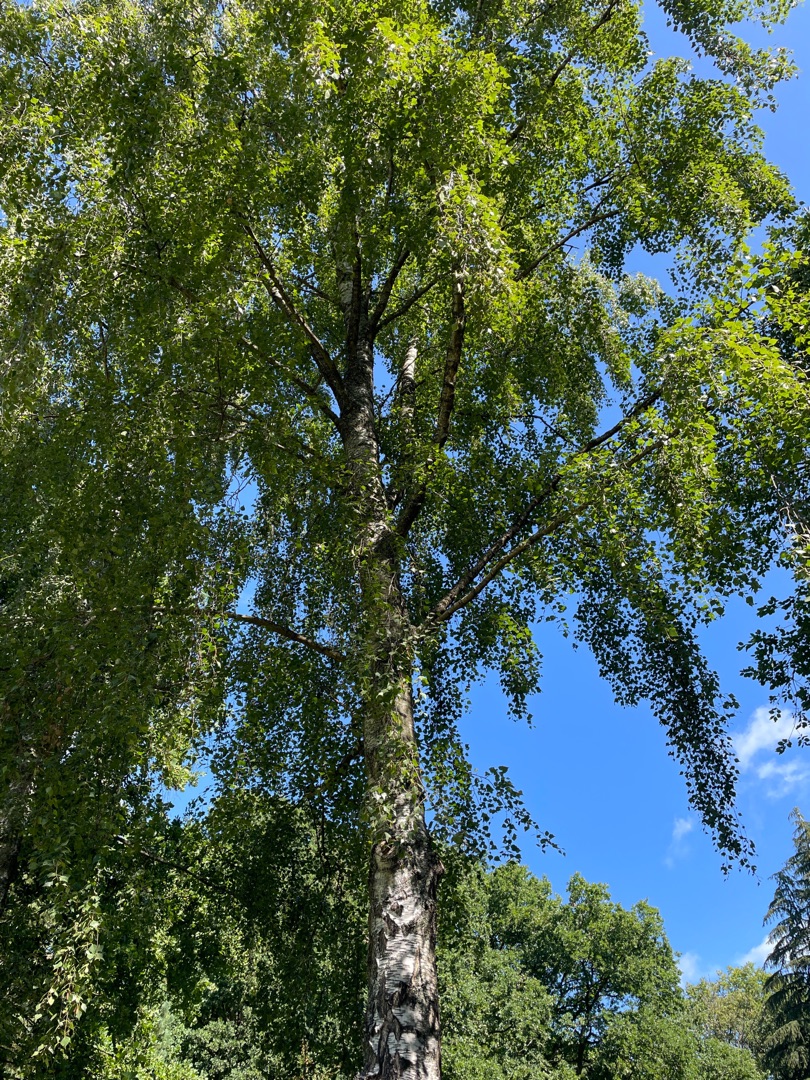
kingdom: Plantae
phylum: Tracheophyta
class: Magnoliopsida
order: Fagales
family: Betulaceae
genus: Betula
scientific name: Betula pendula
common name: Vorte-birk
